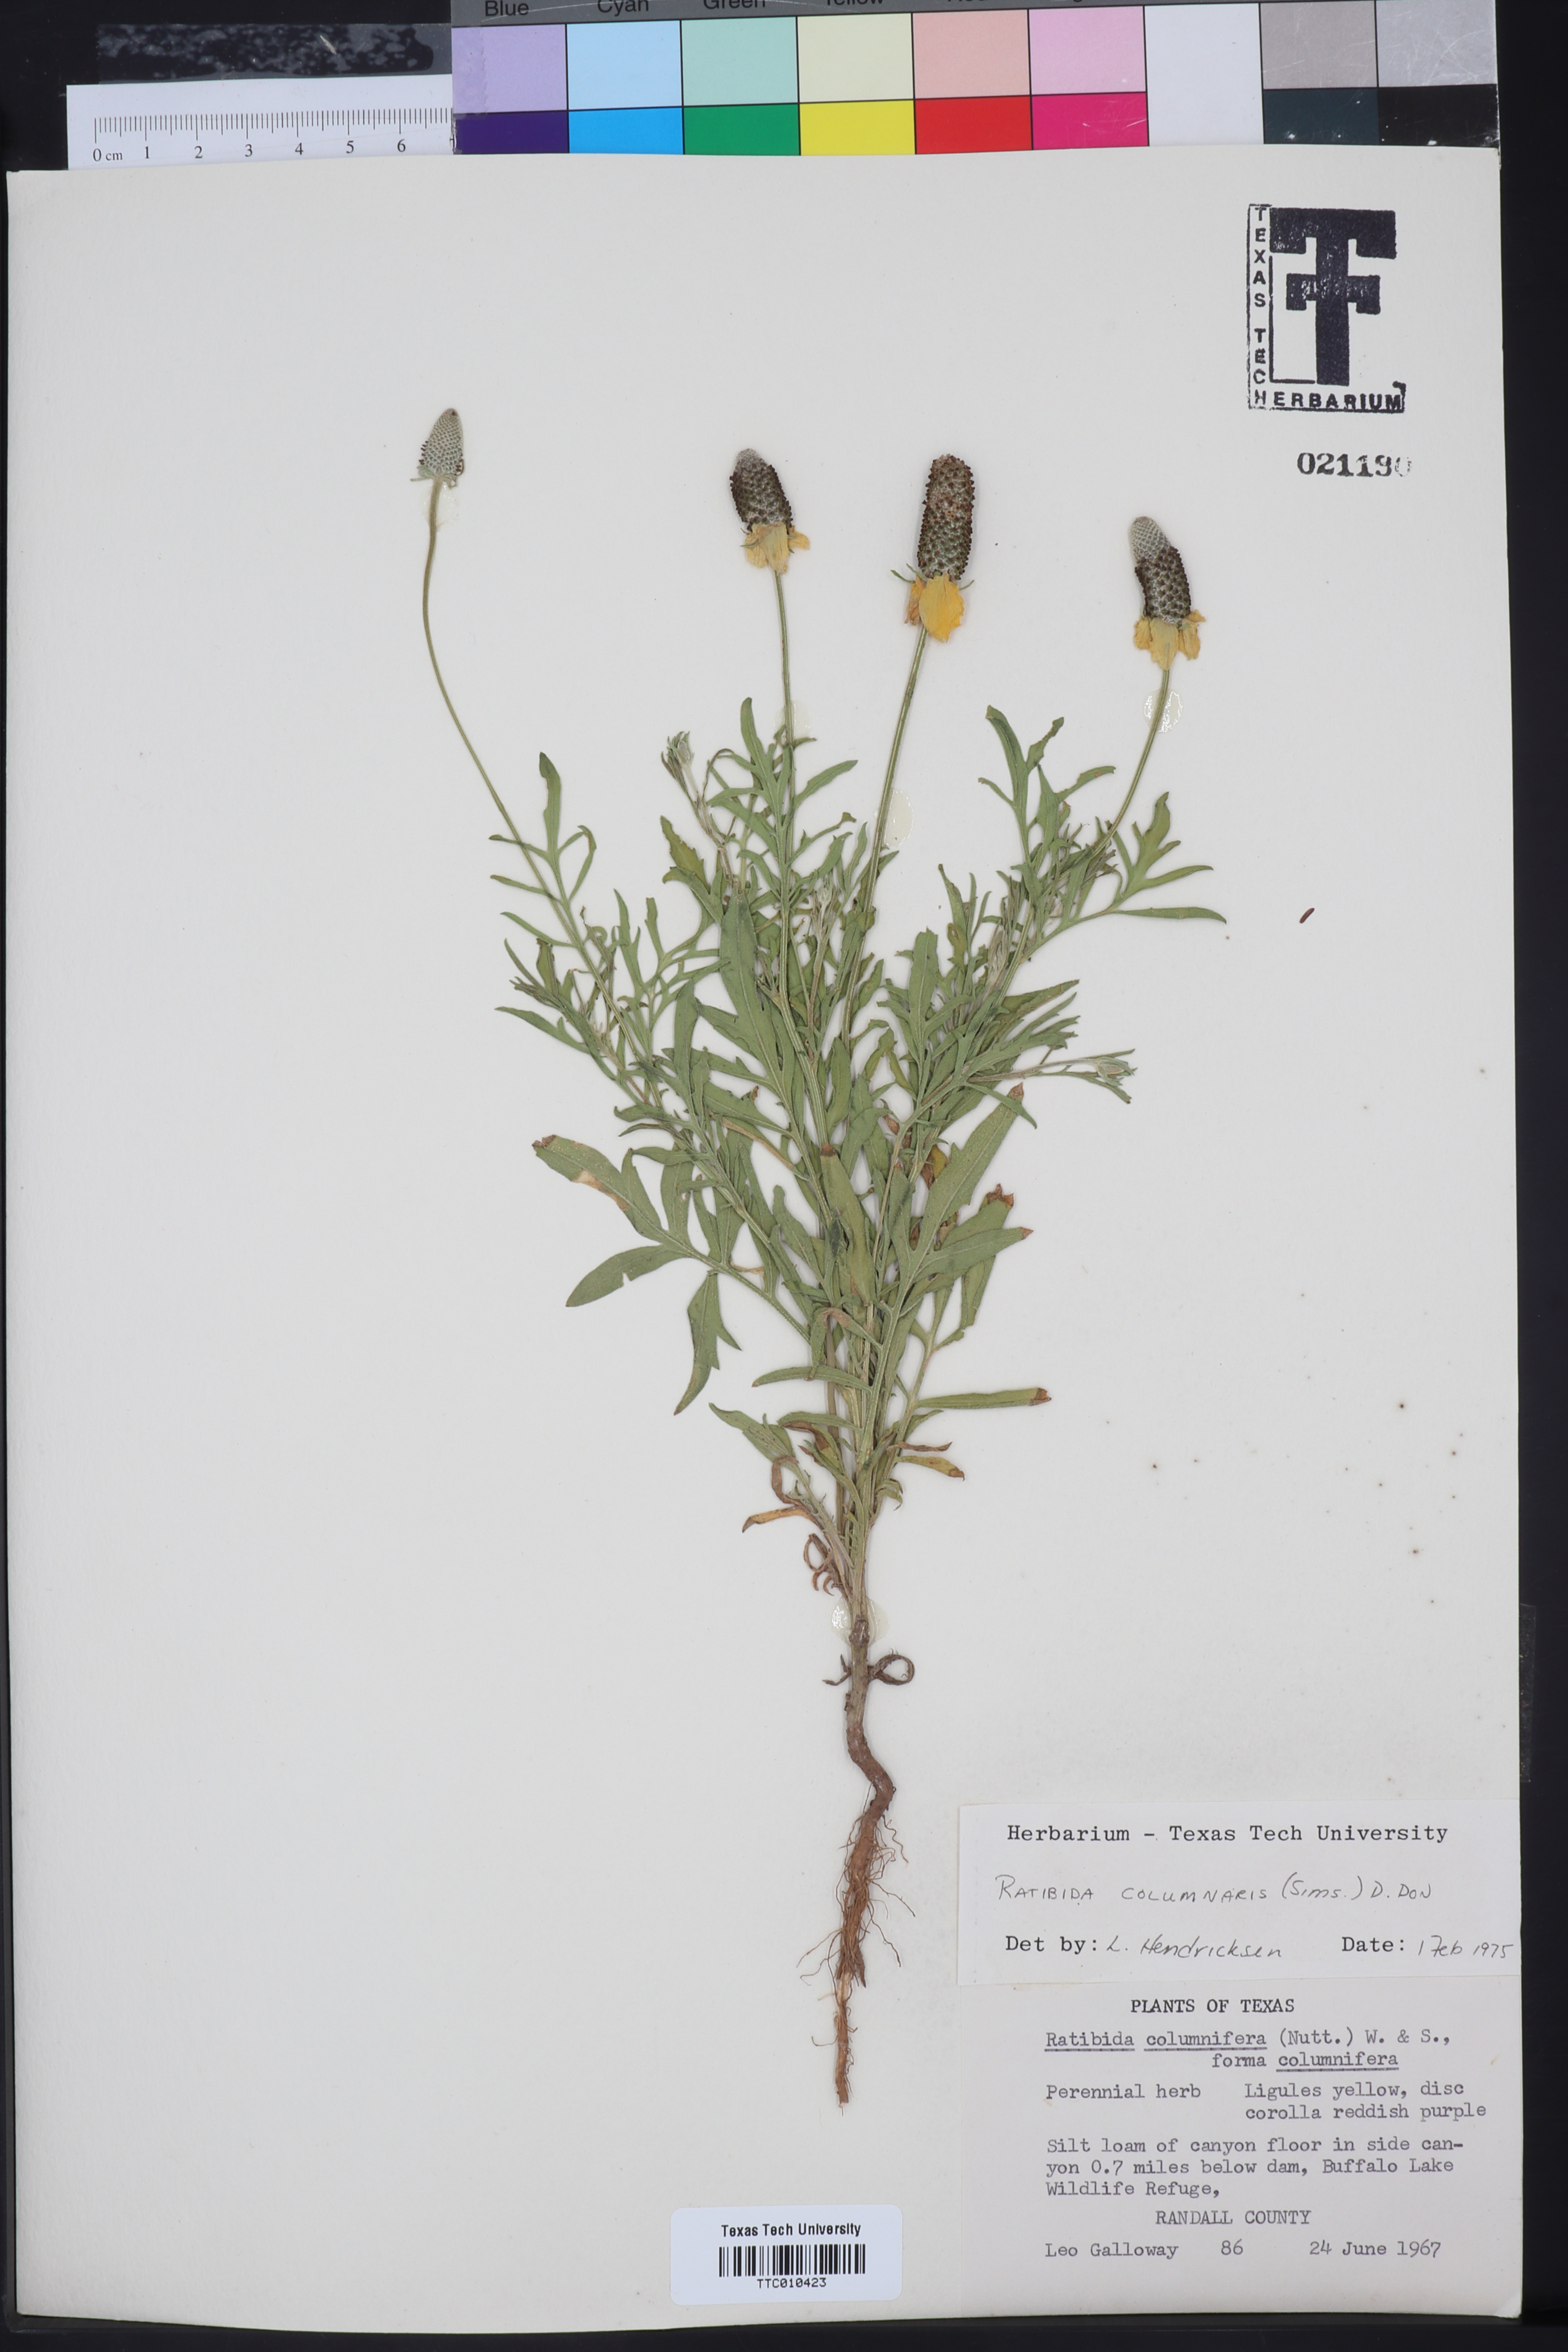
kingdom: Plantae
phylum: Tracheophyta
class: Magnoliopsida
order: Asterales
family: Asteraceae
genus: Ratibida
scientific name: Ratibida columnifera
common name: Prairie coneflower
